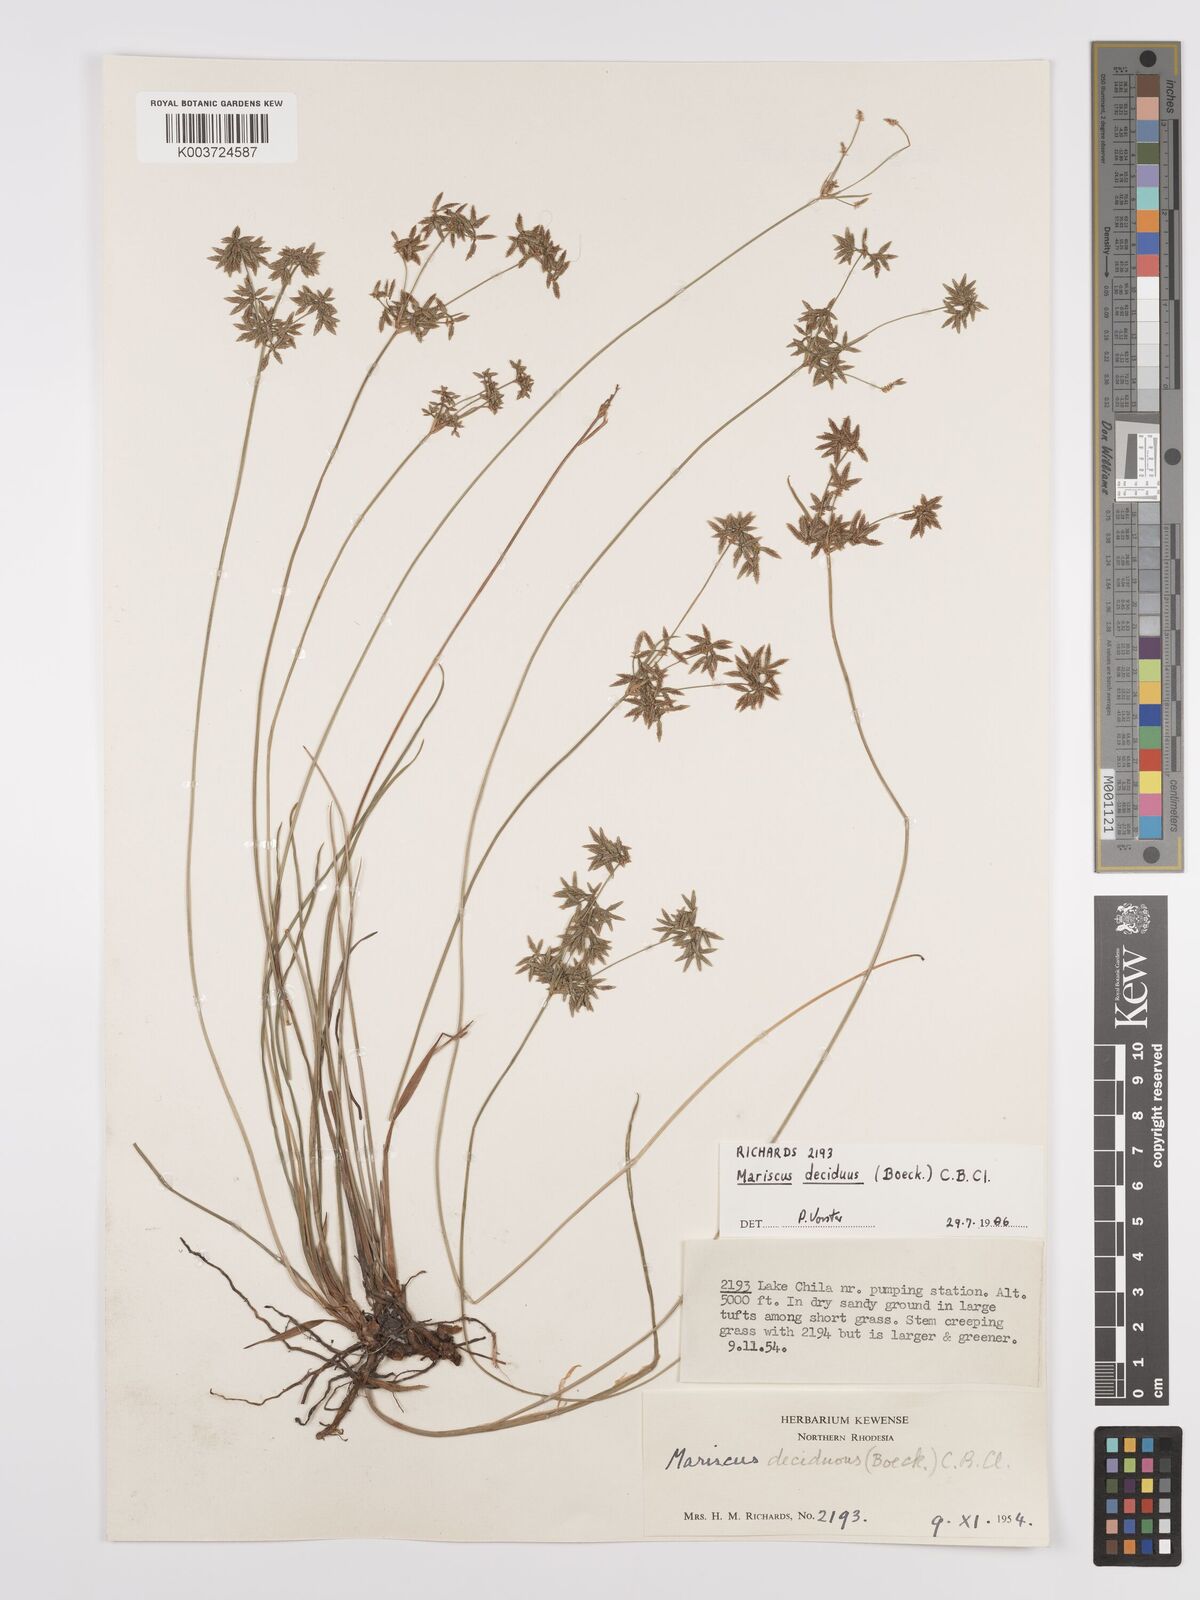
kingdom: Plantae
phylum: Tracheophyta
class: Liliopsida
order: Poales
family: Cyperaceae
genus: Cyperus
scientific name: Cyperus deciduus
